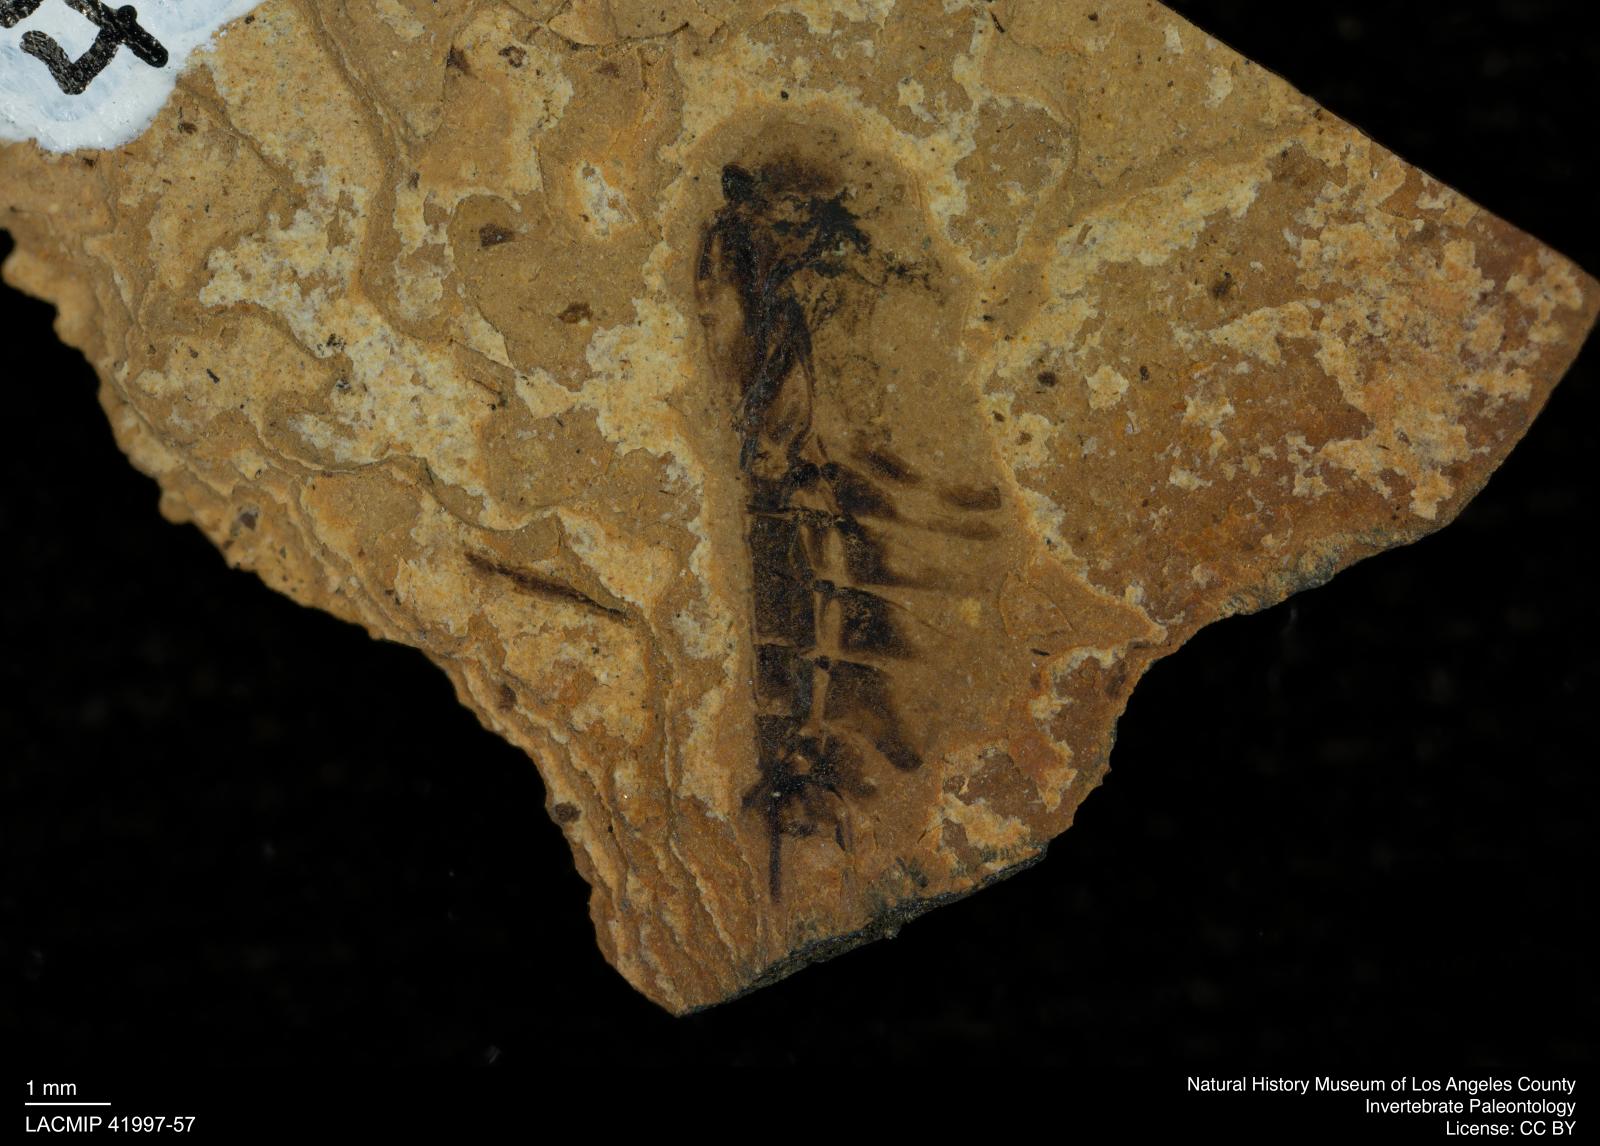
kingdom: Animalia
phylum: Arthropoda
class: Insecta
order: Hemiptera
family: Notonectidae
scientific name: Notonectidae
